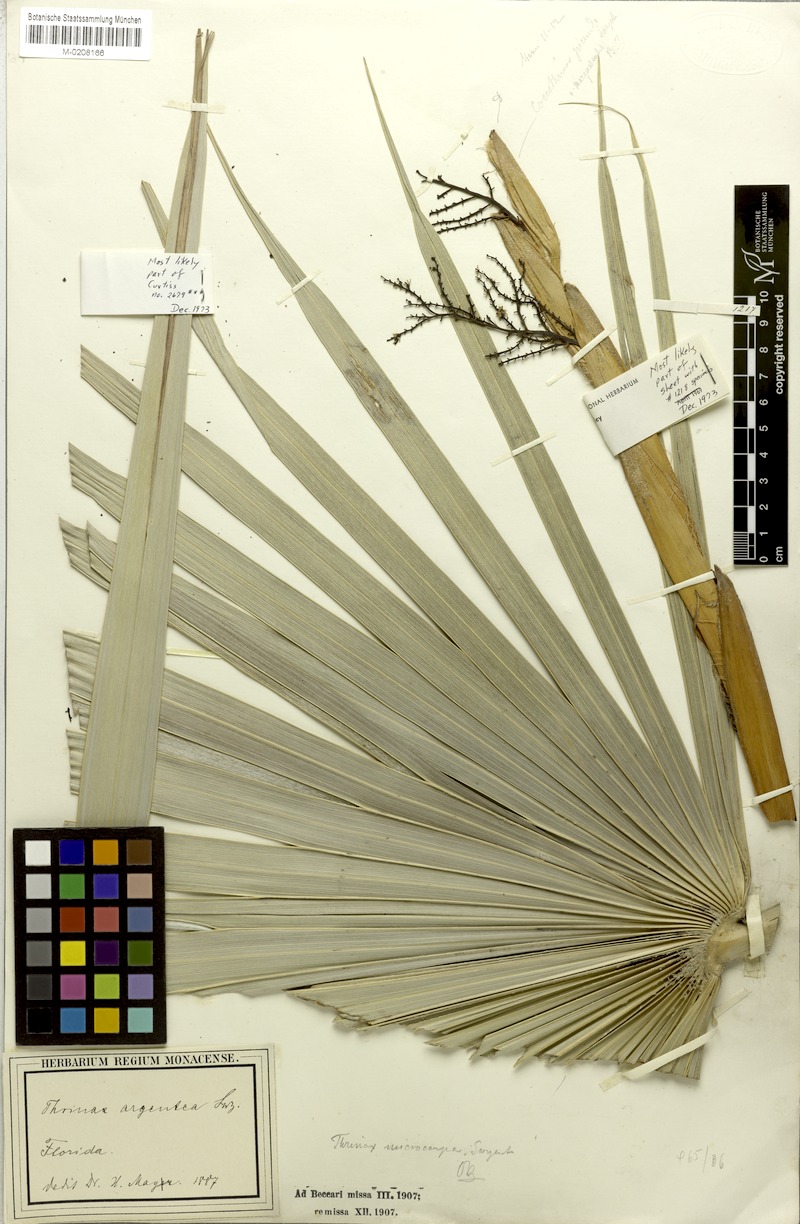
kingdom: Plantae
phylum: Tracheophyta
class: Liliopsida
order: Arecales
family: Arecaceae
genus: Coccothrinax
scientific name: Coccothrinax argentata
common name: Florida silver palm
